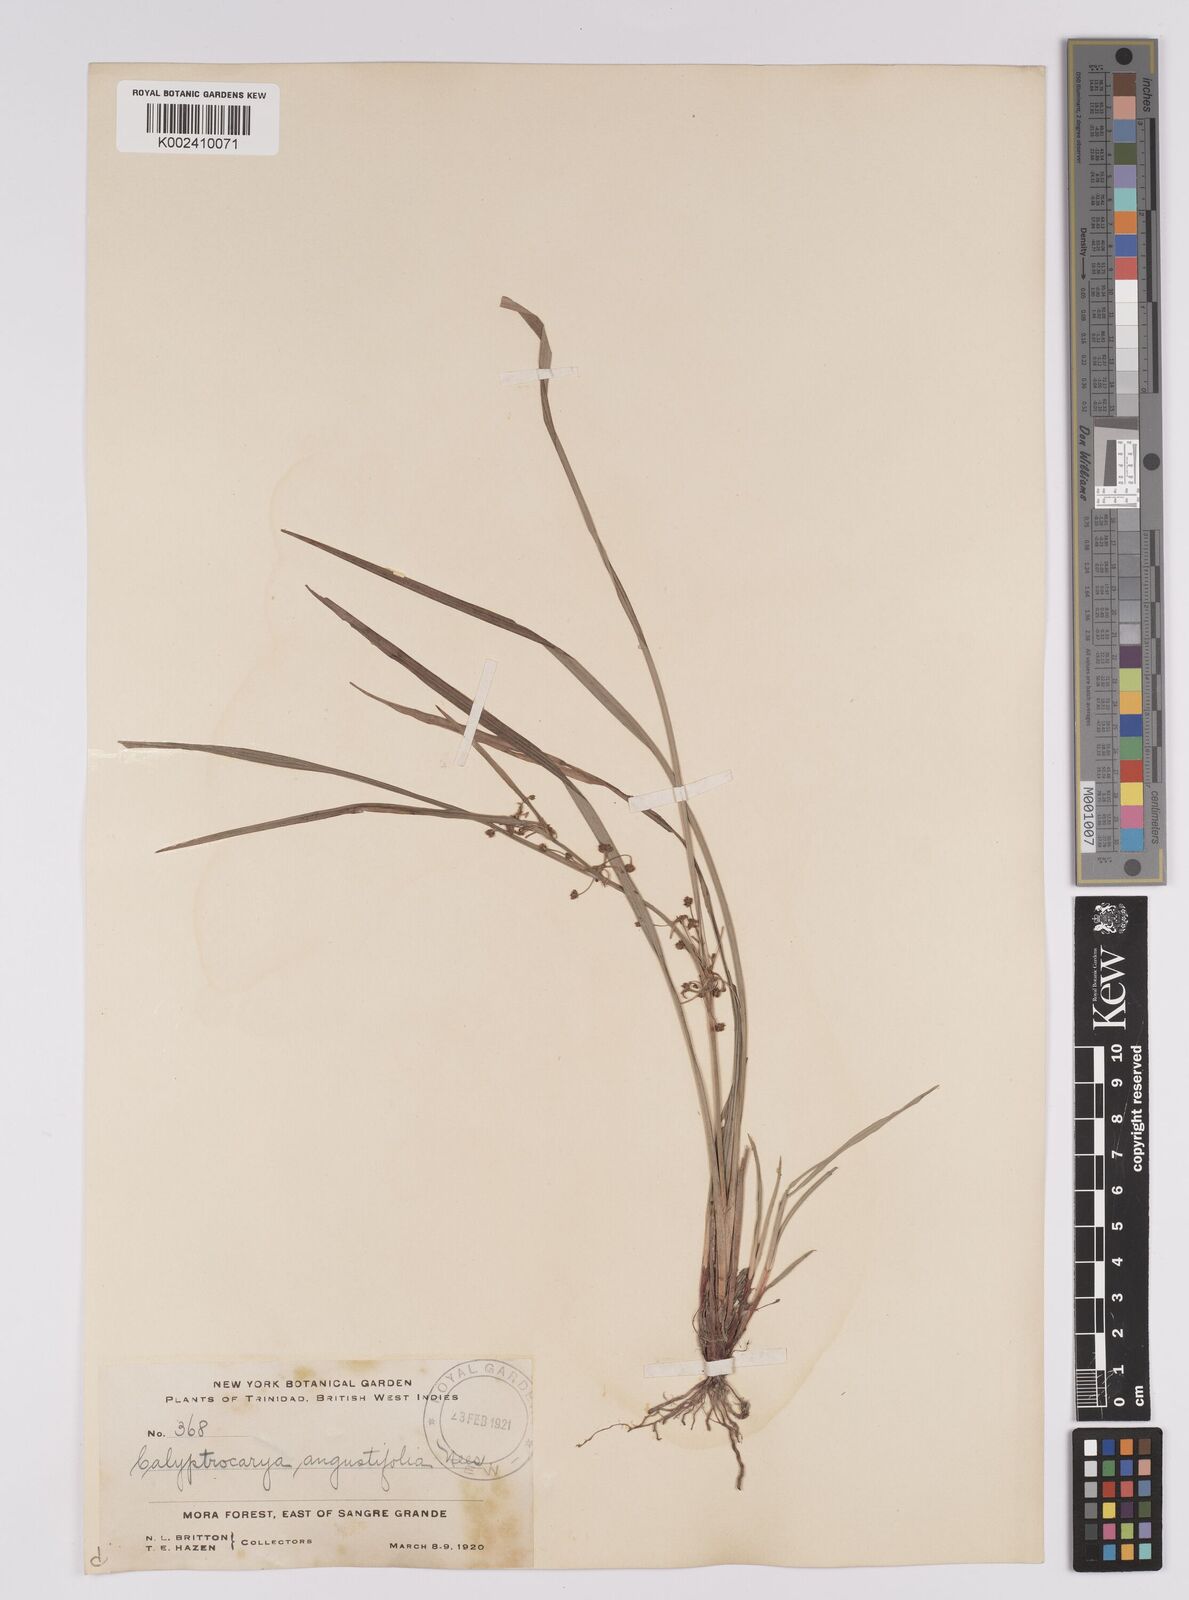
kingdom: Plantae
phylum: Tracheophyta
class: Liliopsida
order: Poales
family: Cyperaceae
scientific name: Cyperaceae
